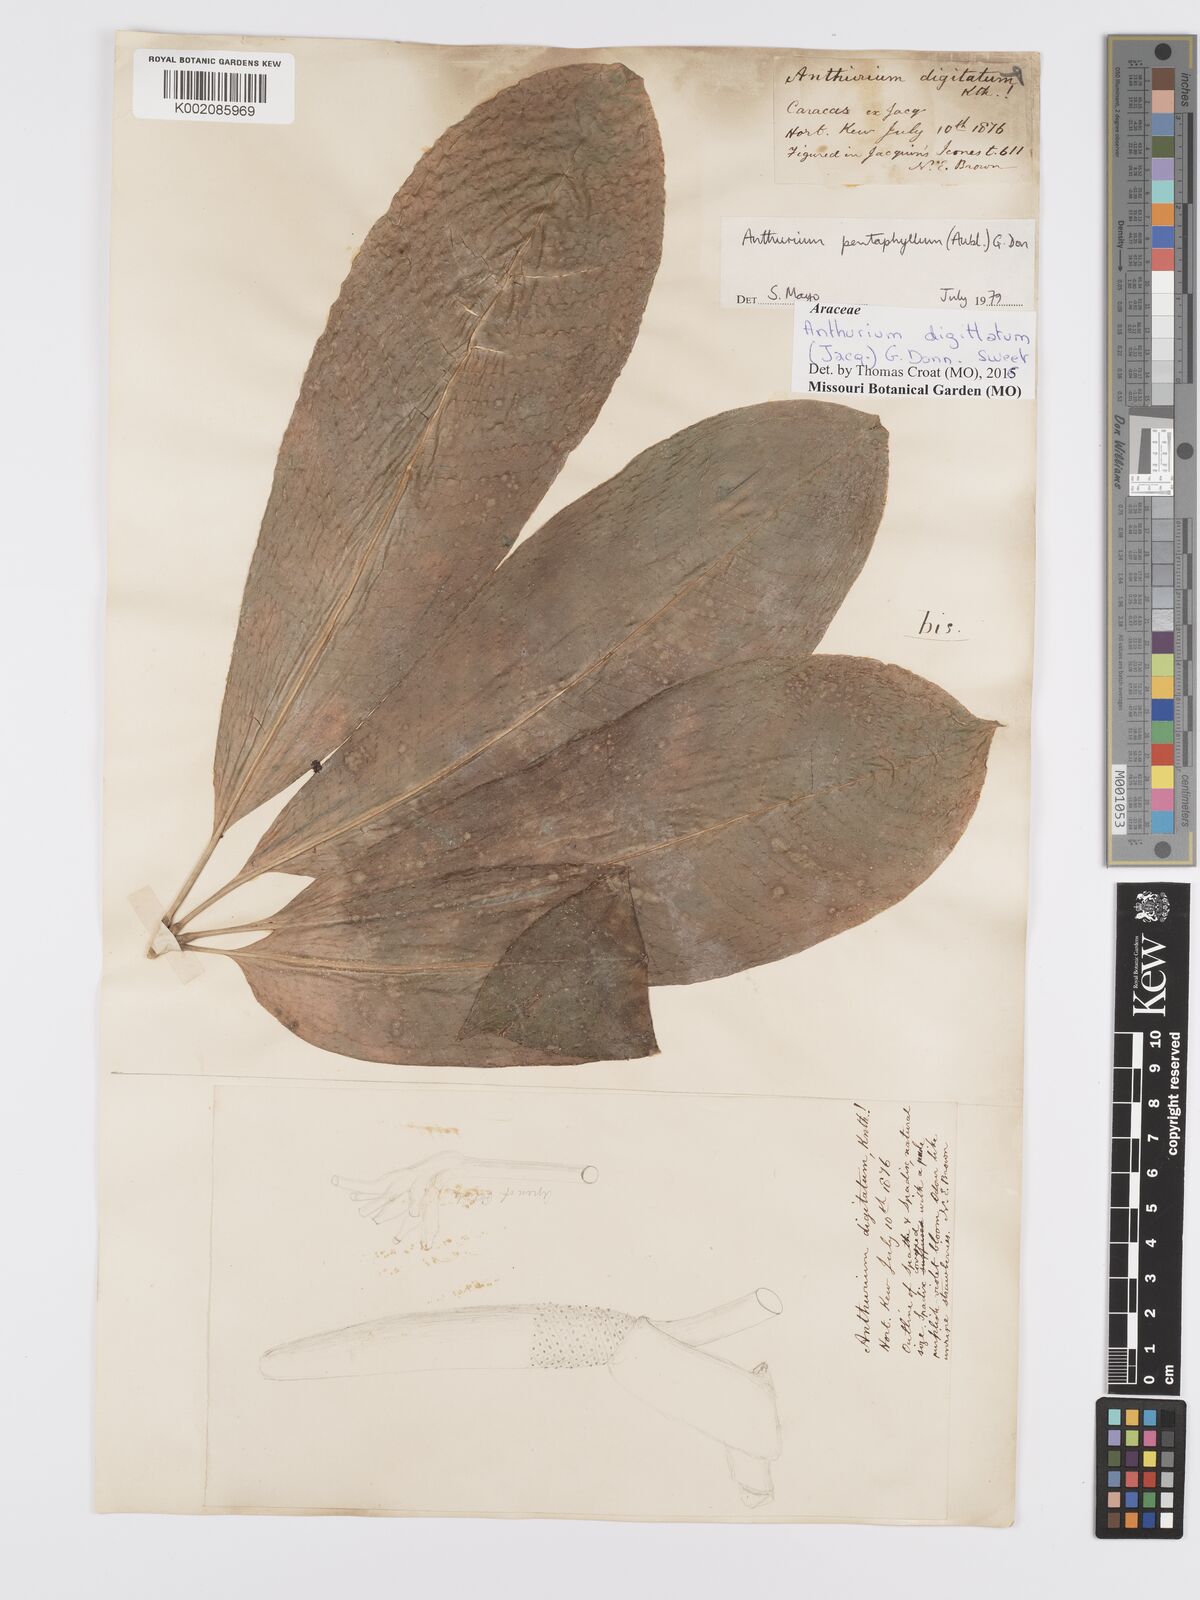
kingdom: Plantae
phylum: Tracheophyta
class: Liliopsida
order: Alismatales
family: Araceae
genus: Anthurium
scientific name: Anthurium digitatum
